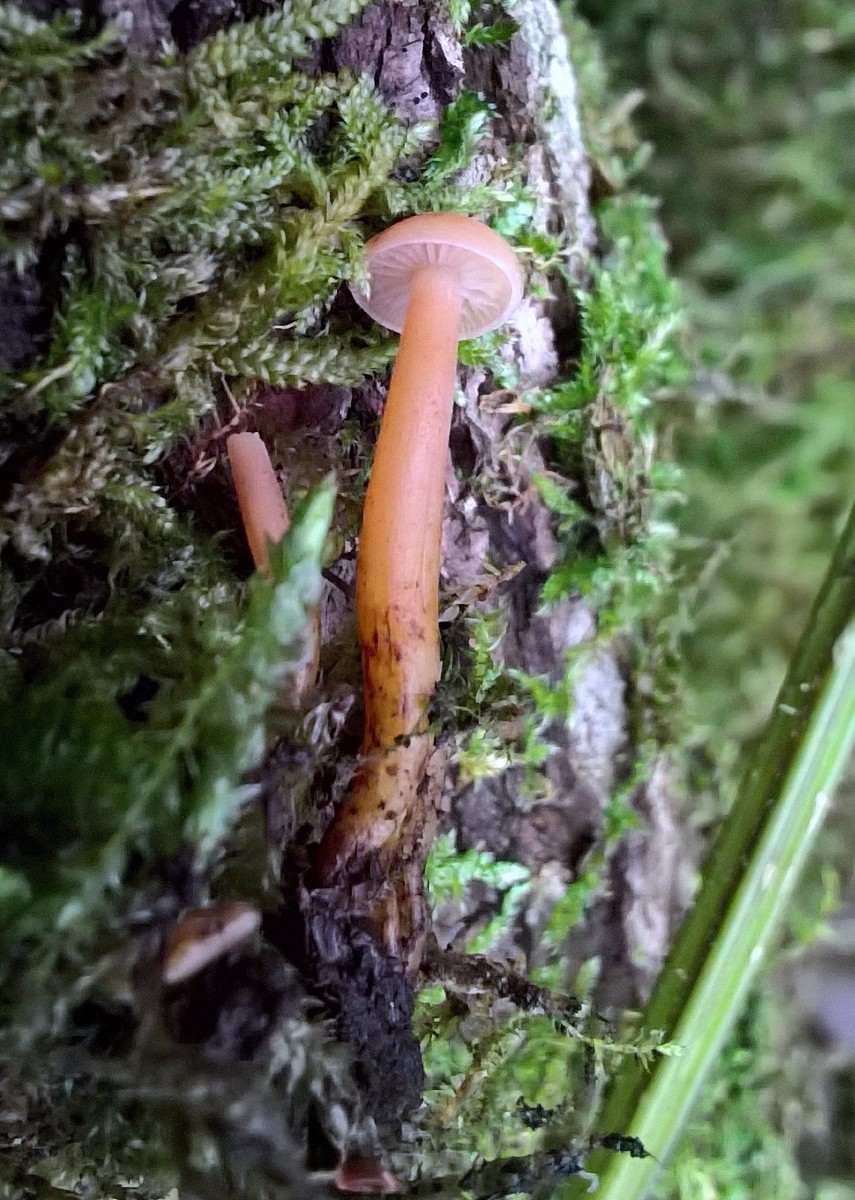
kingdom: Fungi
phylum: Basidiomycota
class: Agaricomycetes
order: Agaricales
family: Physalacriaceae
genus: Flammulina
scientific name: Flammulina
